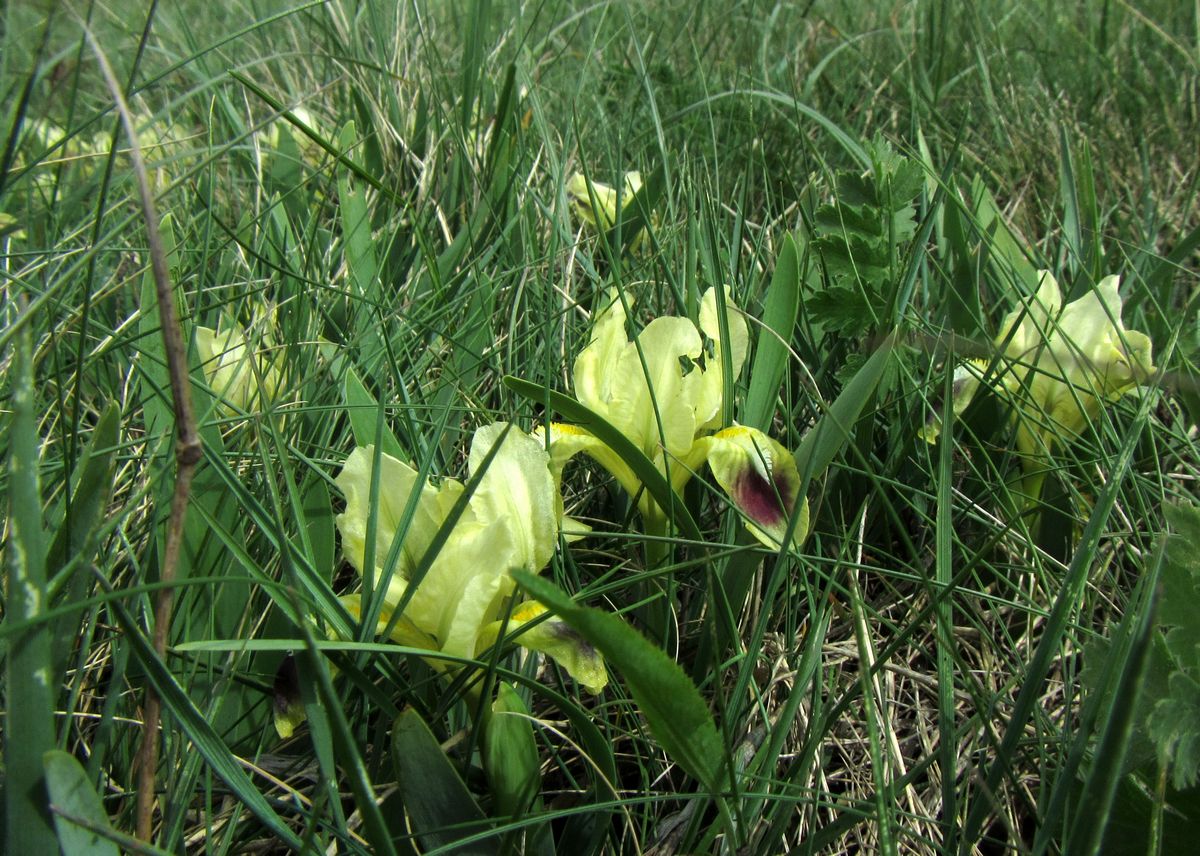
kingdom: Plantae
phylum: Tracheophyta
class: Liliopsida
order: Asparagales
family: Iridaceae
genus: Iris
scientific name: Iris pumila
